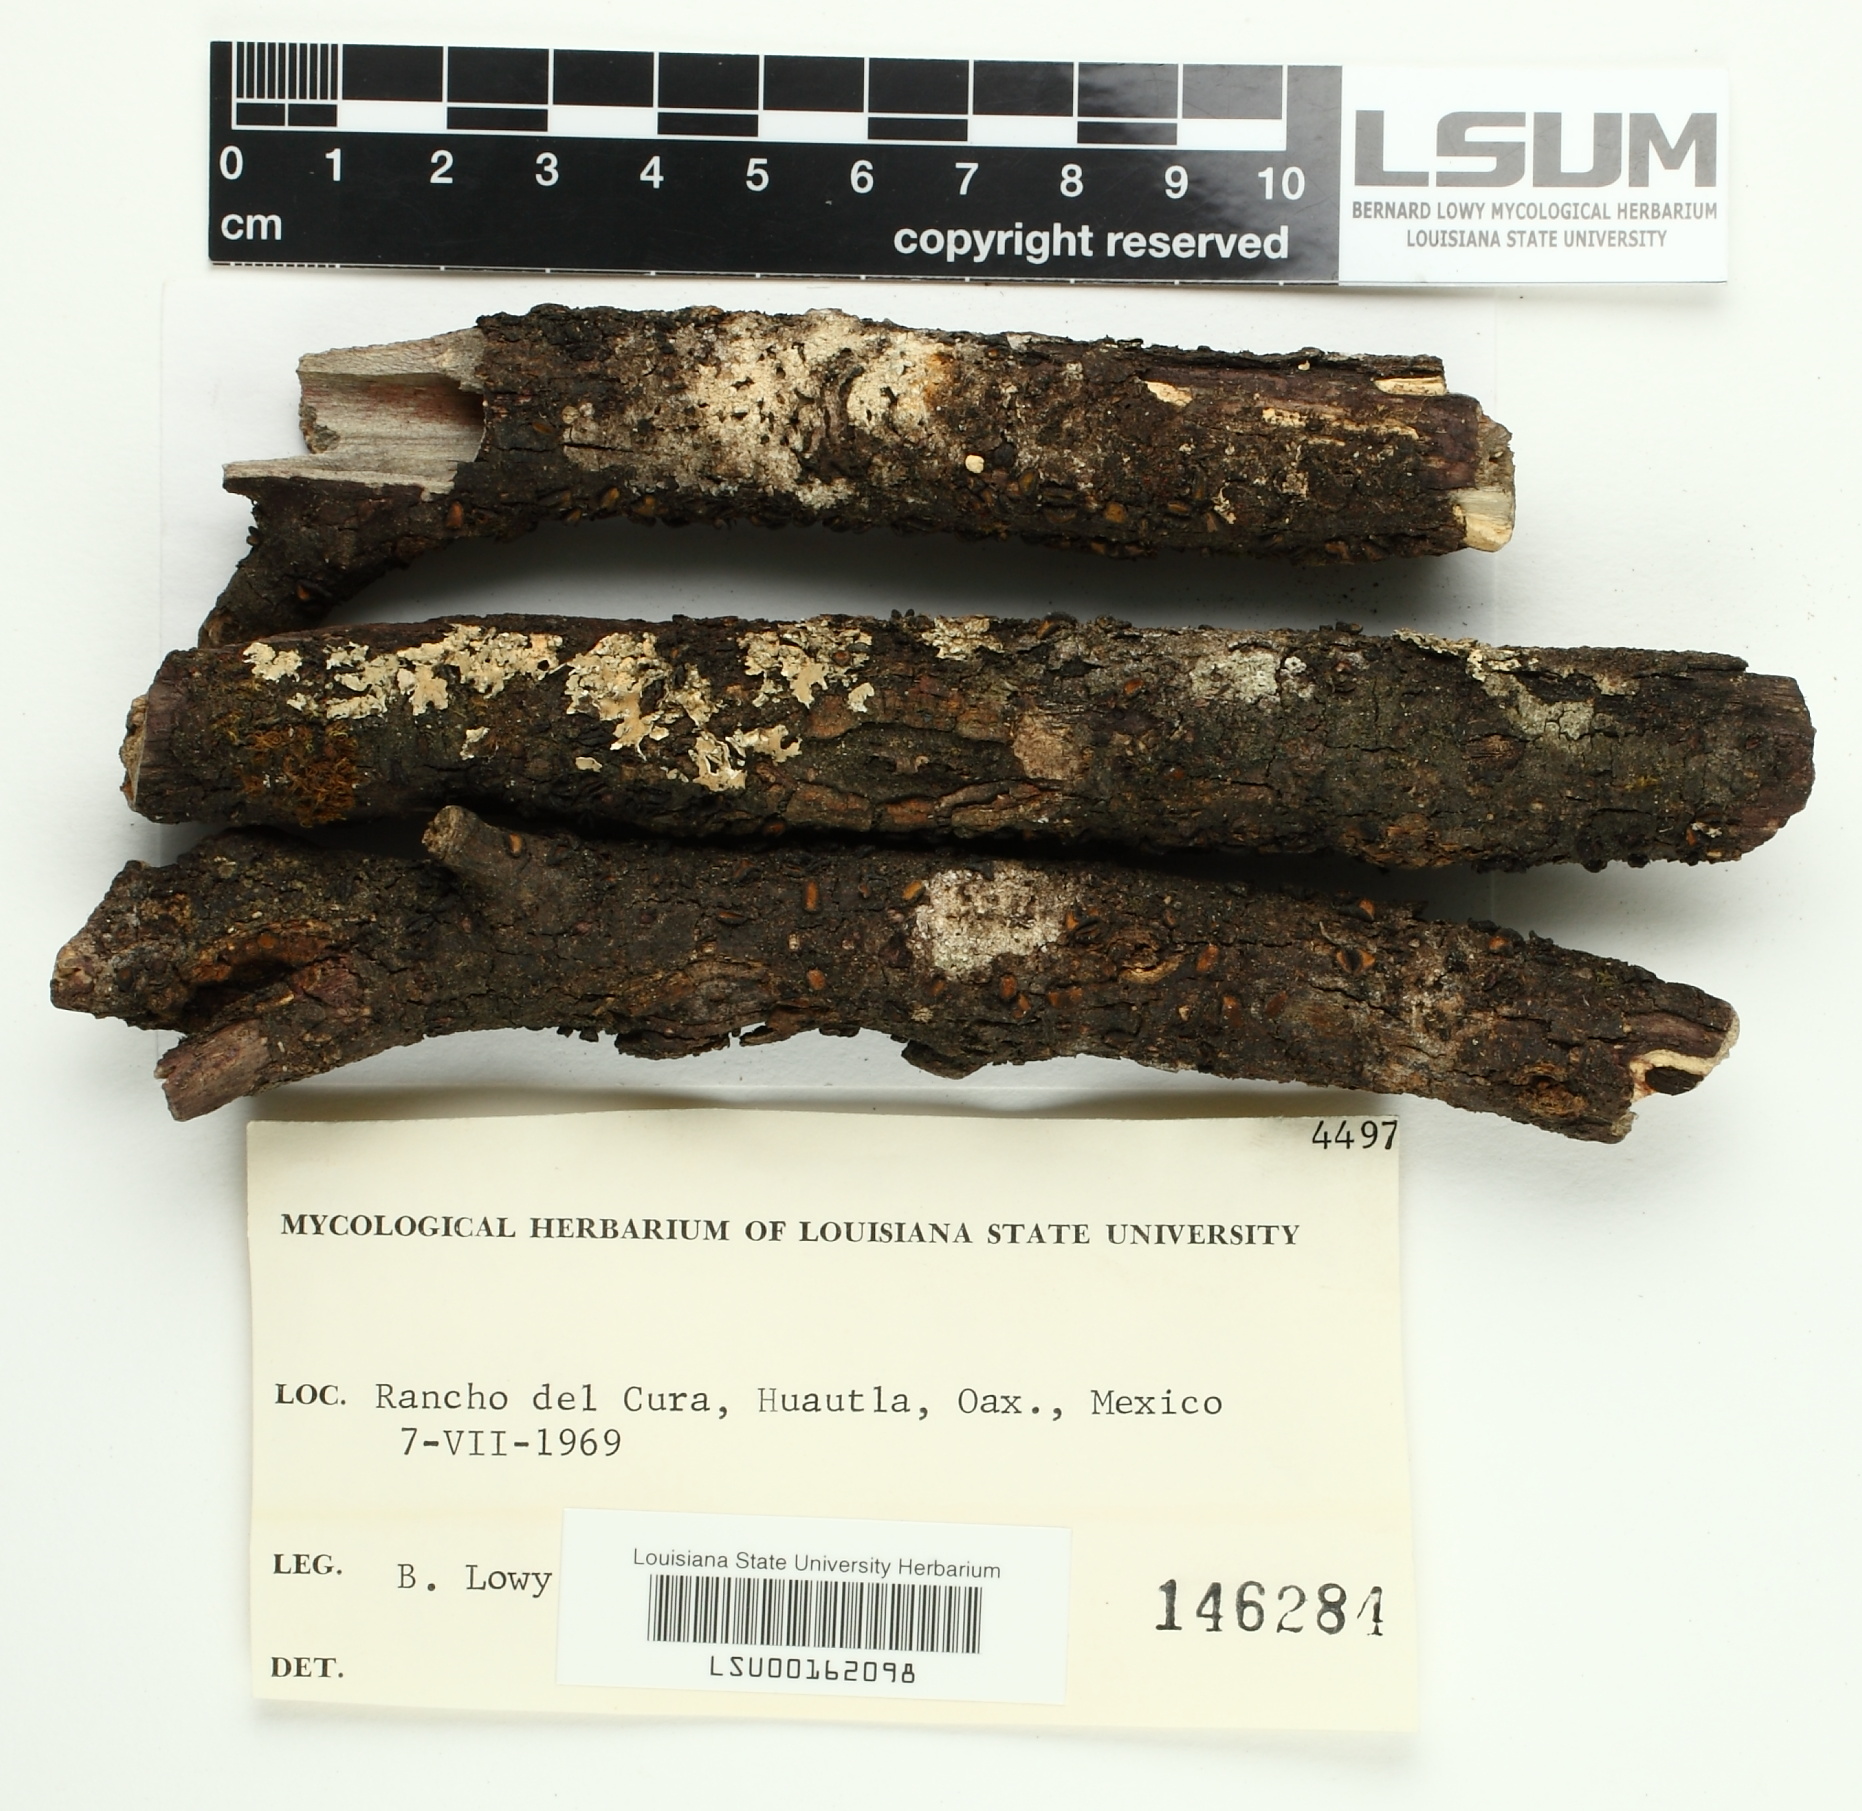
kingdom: Fungi
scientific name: Fungi
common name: Fungi
